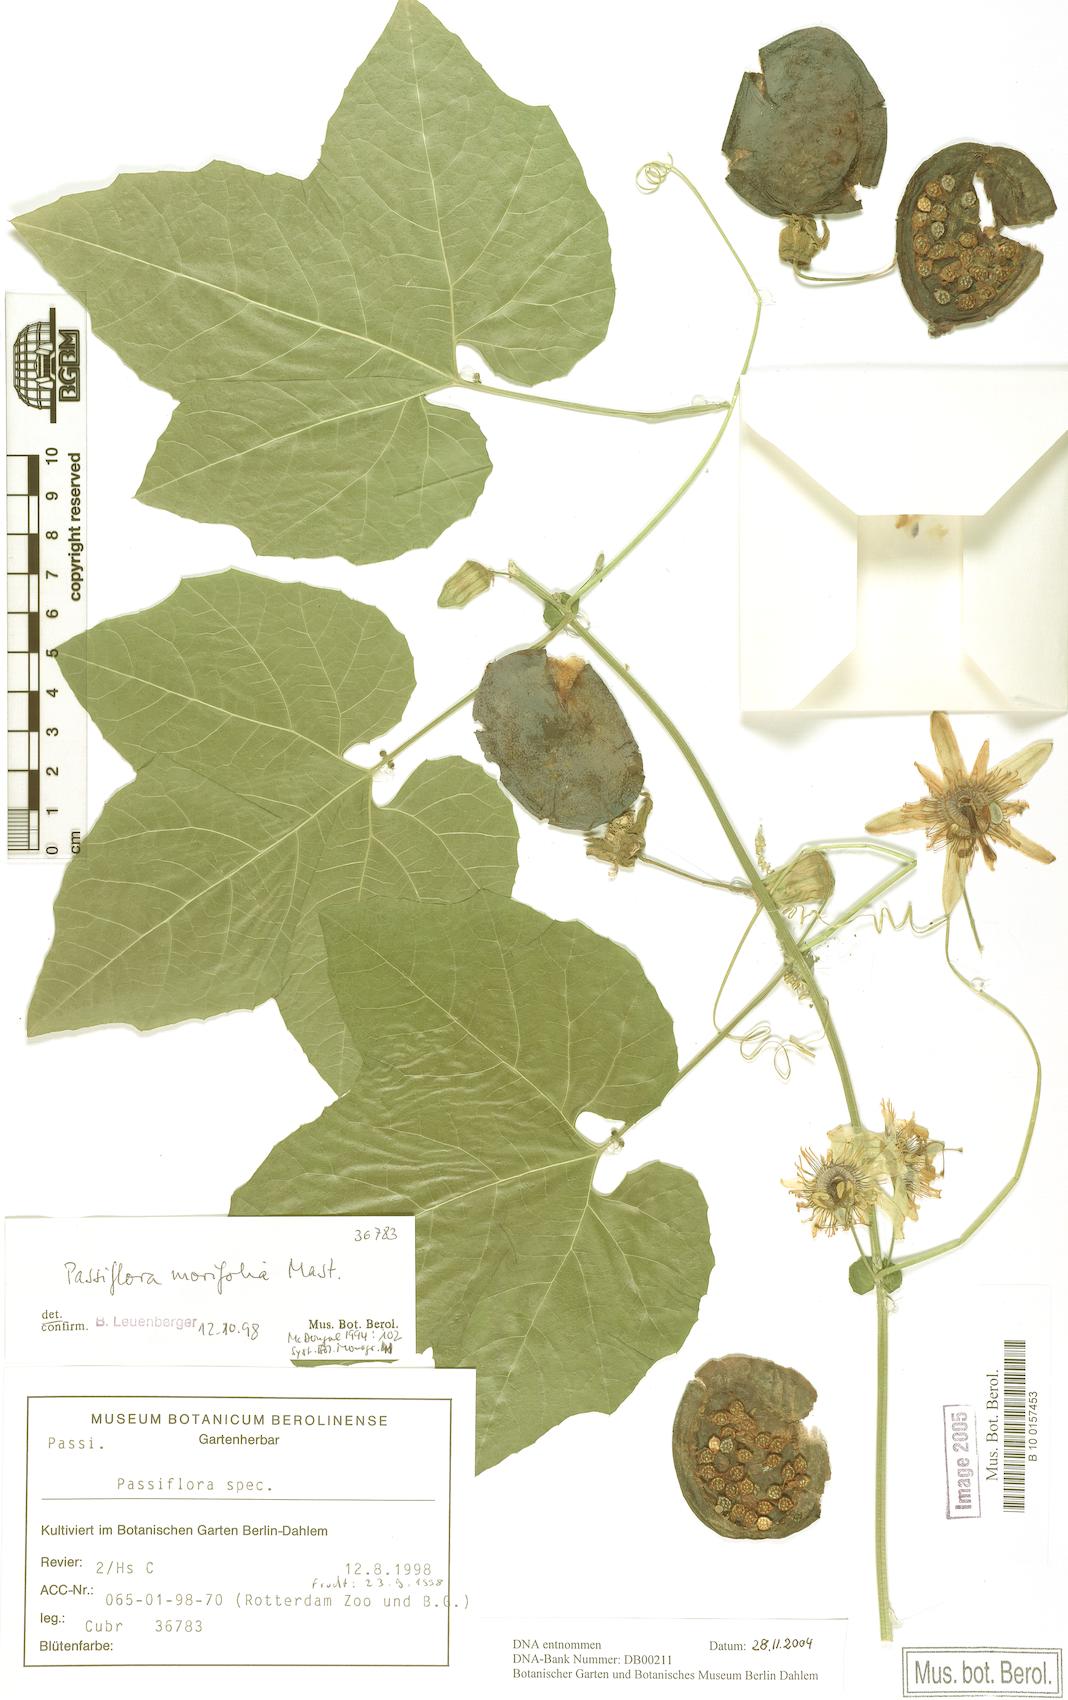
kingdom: Plantae
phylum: Tracheophyta
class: Magnoliopsida
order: Malpighiales
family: Passifloraceae
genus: Passiflora
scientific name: Passiflora morifolia
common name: Woodland passionflower
